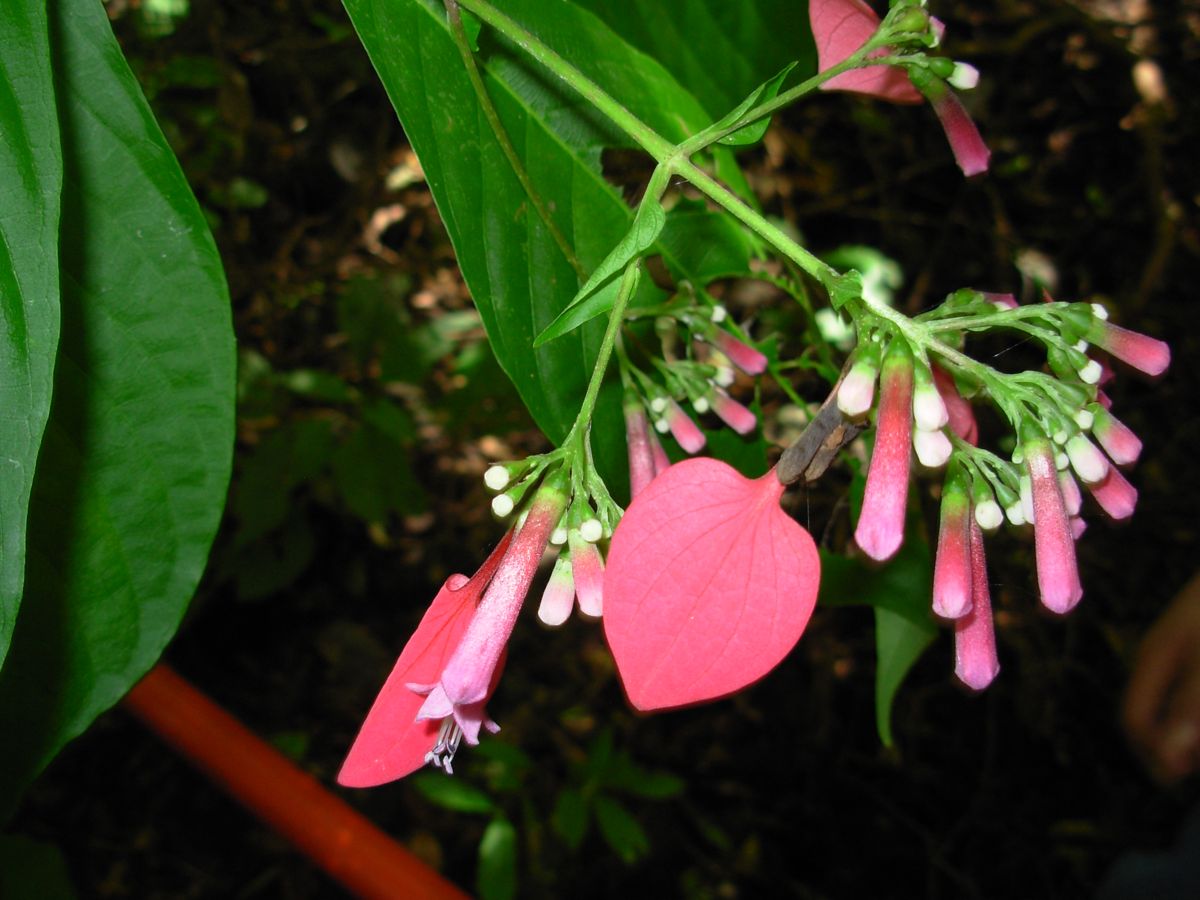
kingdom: Plantae
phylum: Tracheophyta
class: Magnoliopsida
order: Gentianales
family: Rubiaceae
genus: Pogonopus
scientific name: Pogonopus exsertus
